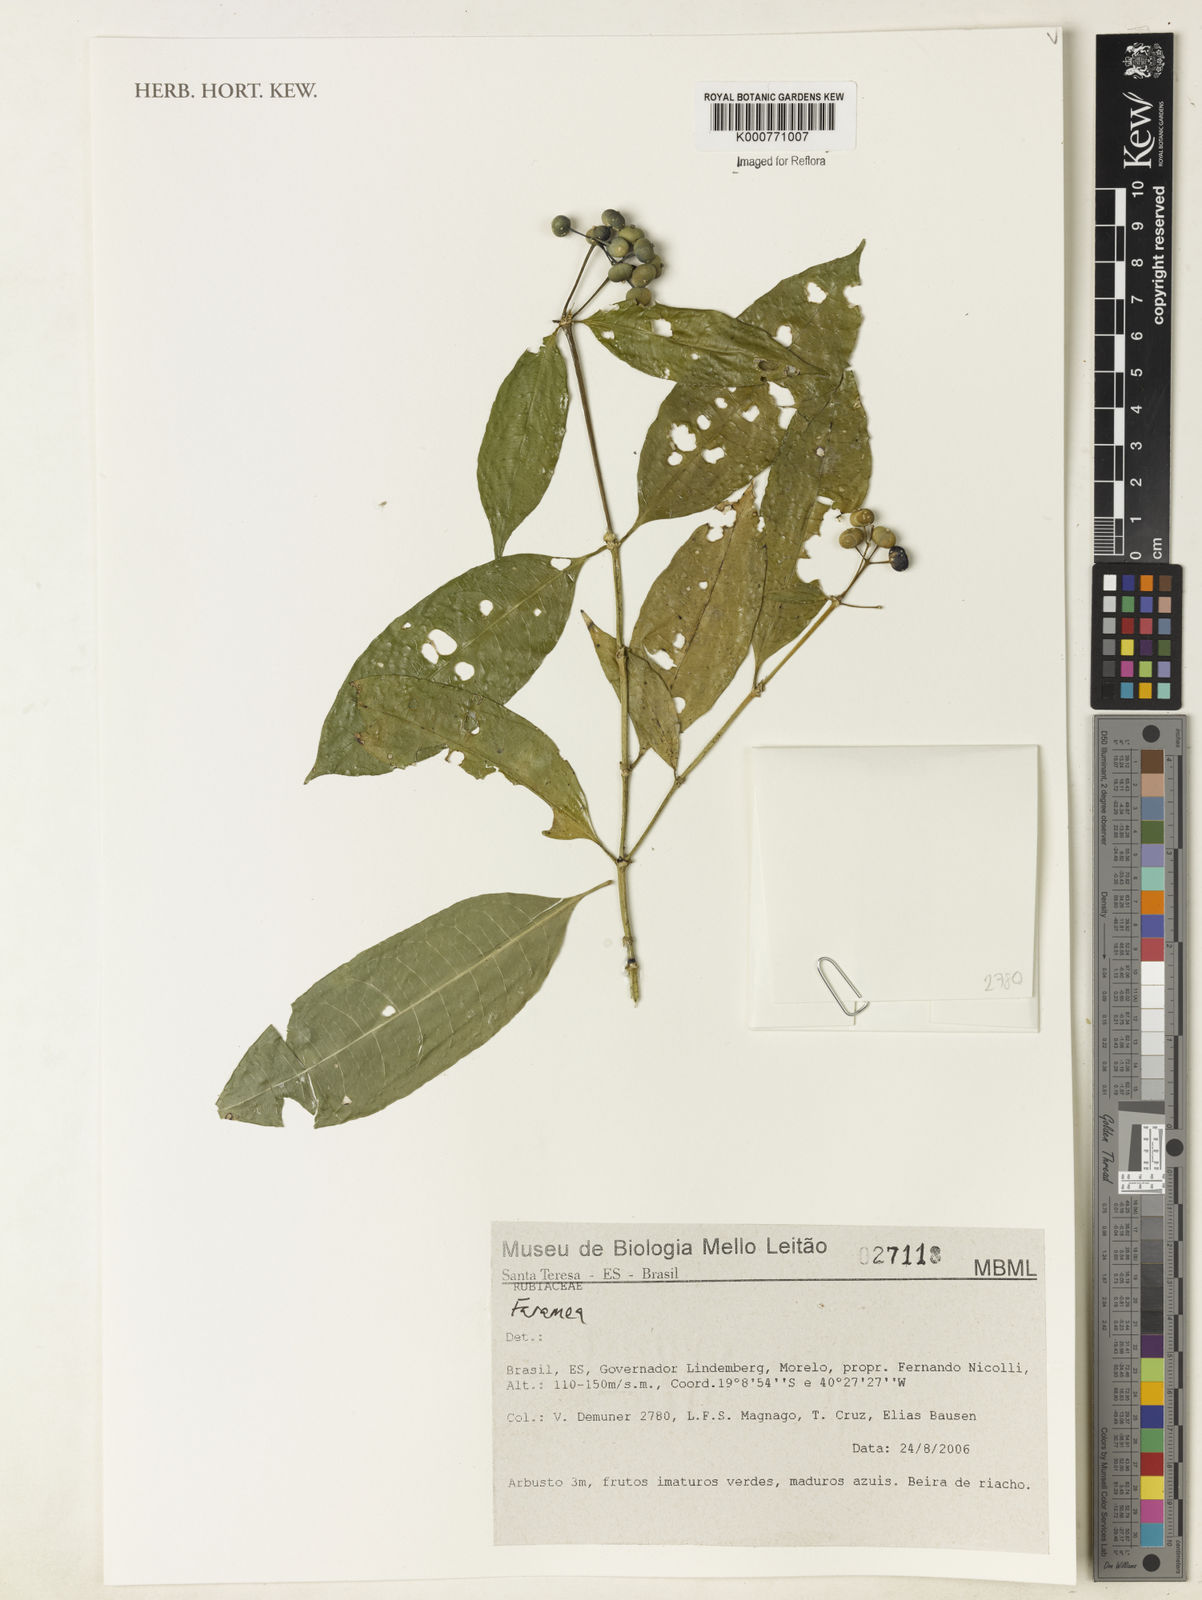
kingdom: Plantae
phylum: Tracheophyta
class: Magnoliopsida
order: Gentianales
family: Rubiaceae
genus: Faramea
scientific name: Faramea
